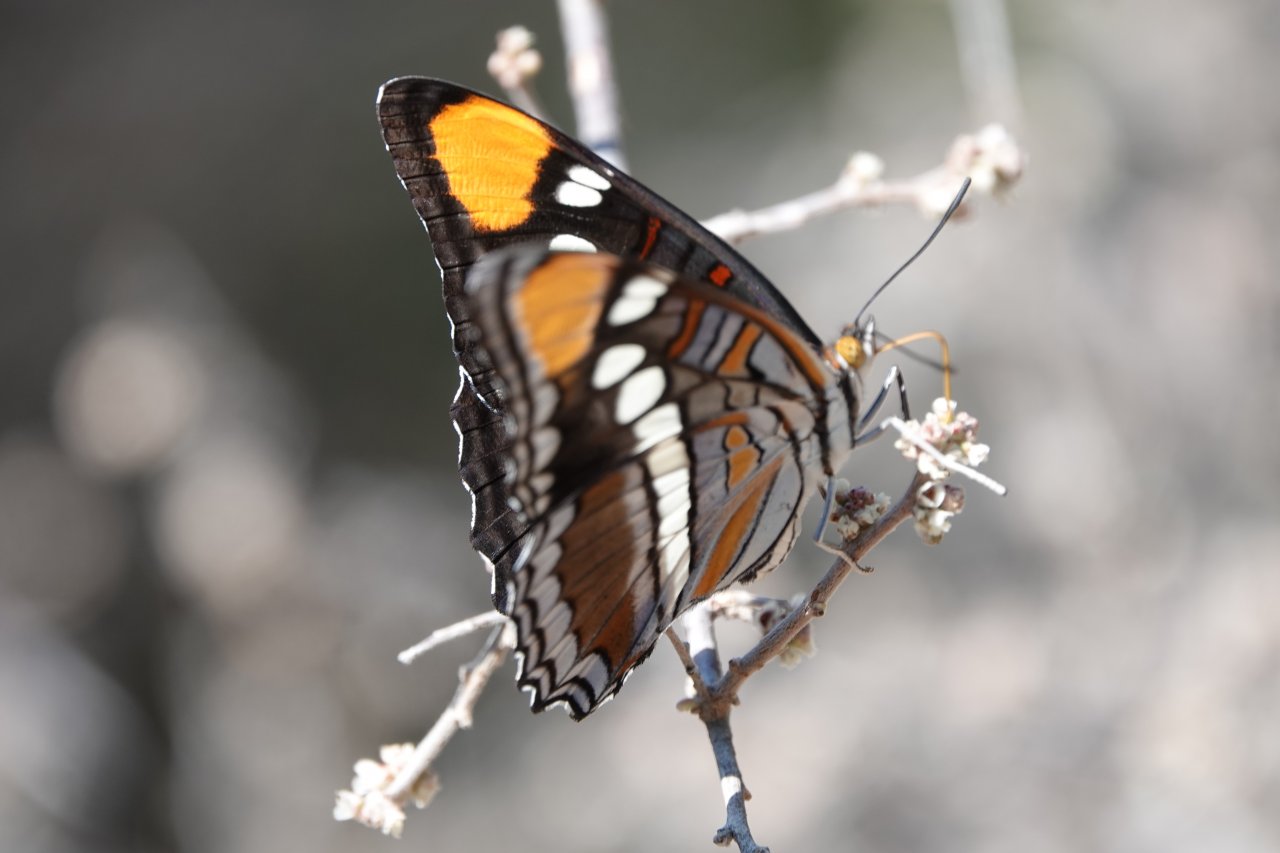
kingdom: Animalia
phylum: Arthropoda
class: Insecta
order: Lepidoptera
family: Nymphalidae
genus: Limenitis
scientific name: Limenitis bredowii
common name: Arizona Sister
